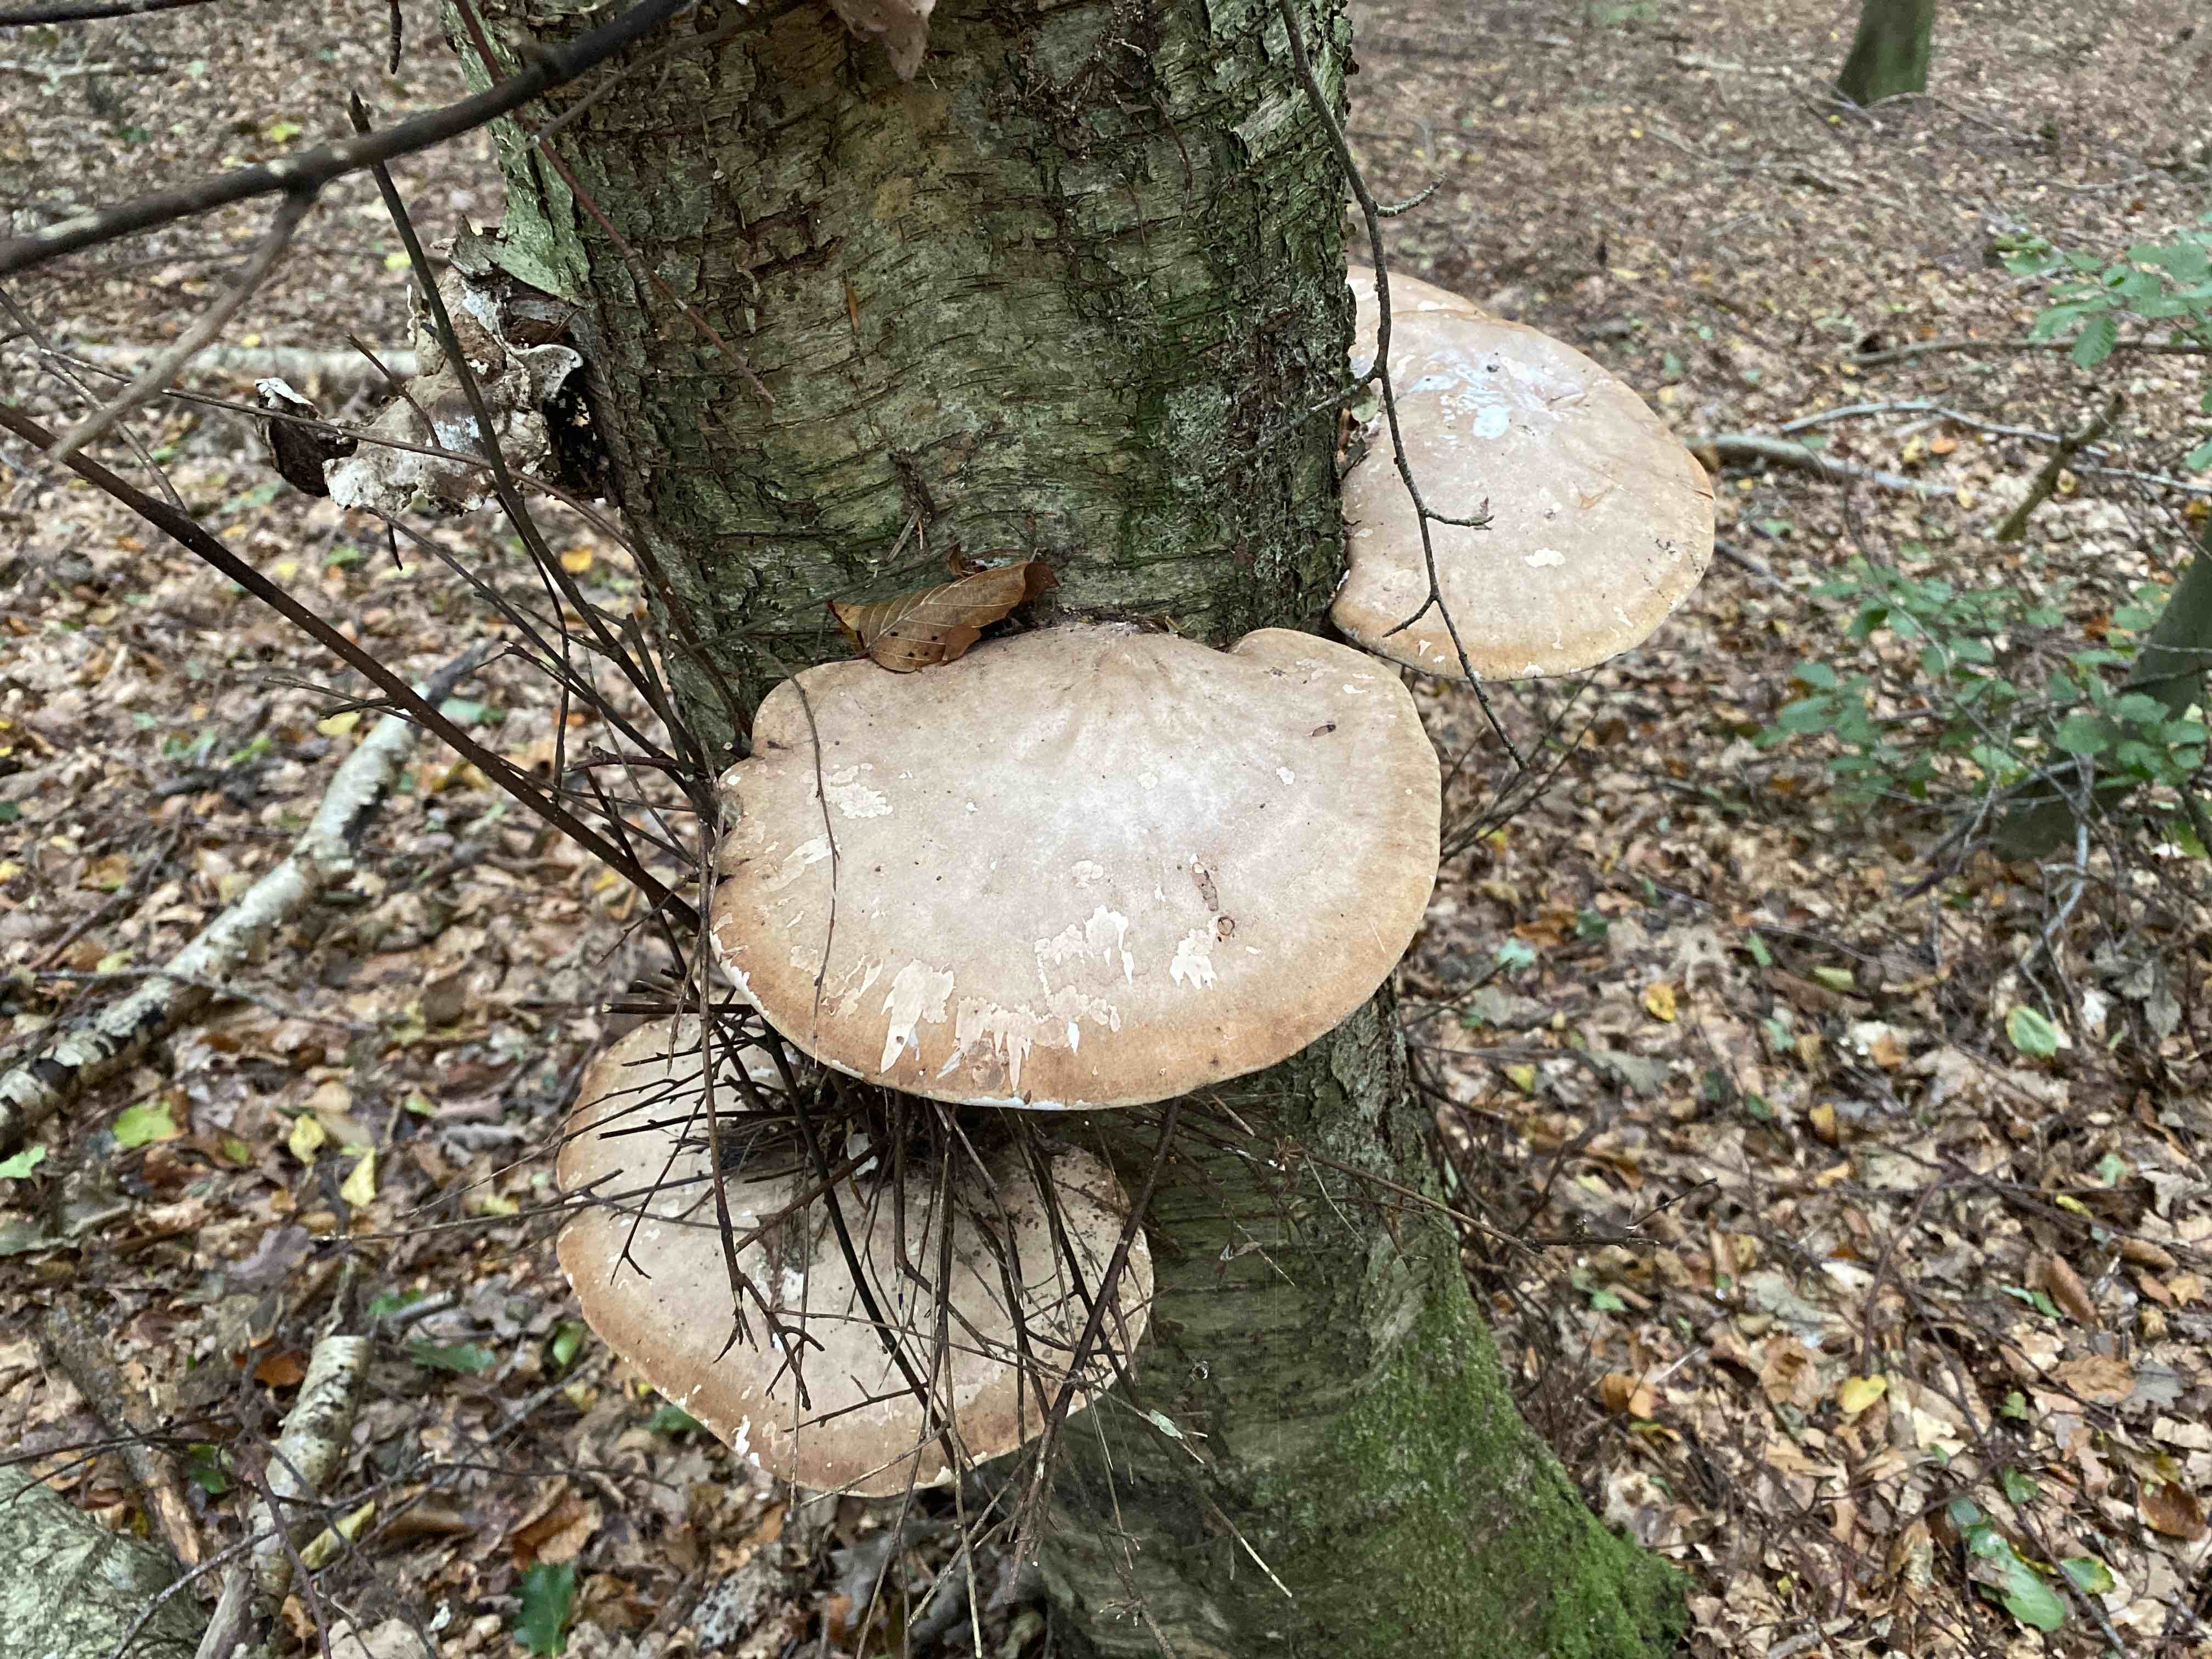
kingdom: Fungi
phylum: Basidiomycota
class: Agaricomycetes
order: Polyporales
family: Fomitopsidaceae
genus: Fomitopsis
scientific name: Fomitopsis betulina
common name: birkeporesvamp
